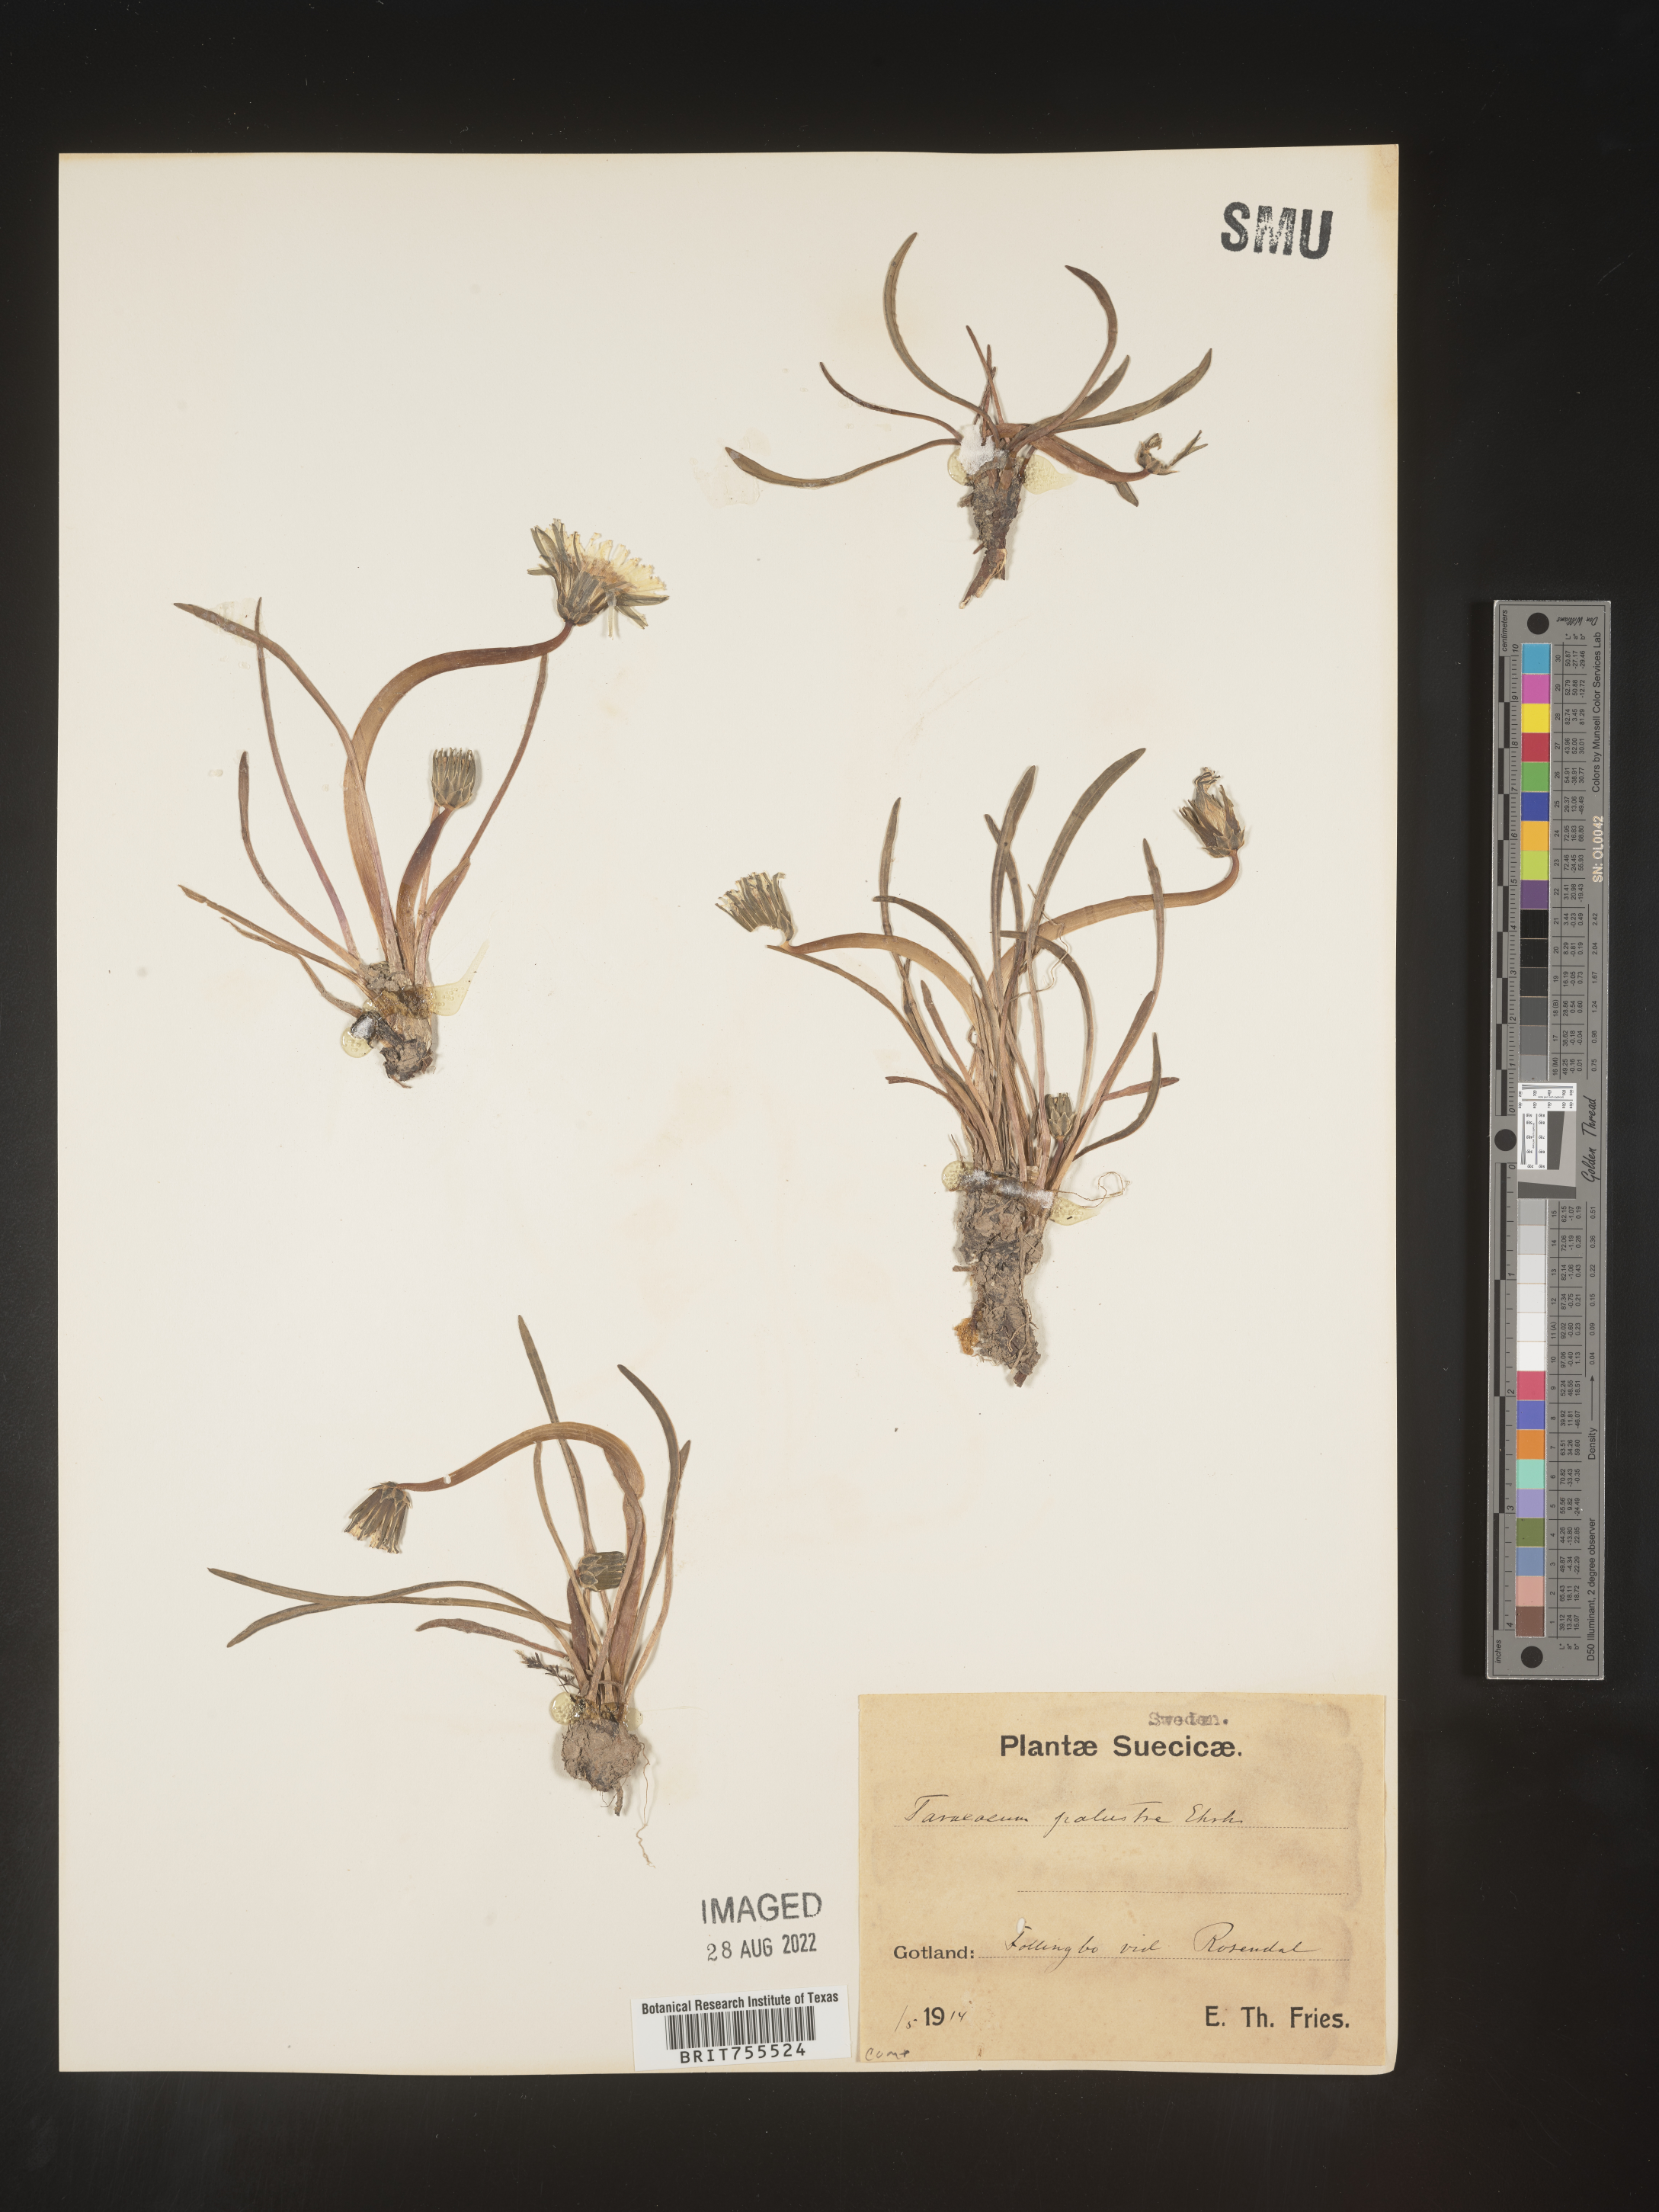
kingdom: Plantae
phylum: Tracheophyta
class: Magnoliopsida
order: Asterales
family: Asteraceae
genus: Taraxacum
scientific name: Taraxacum
